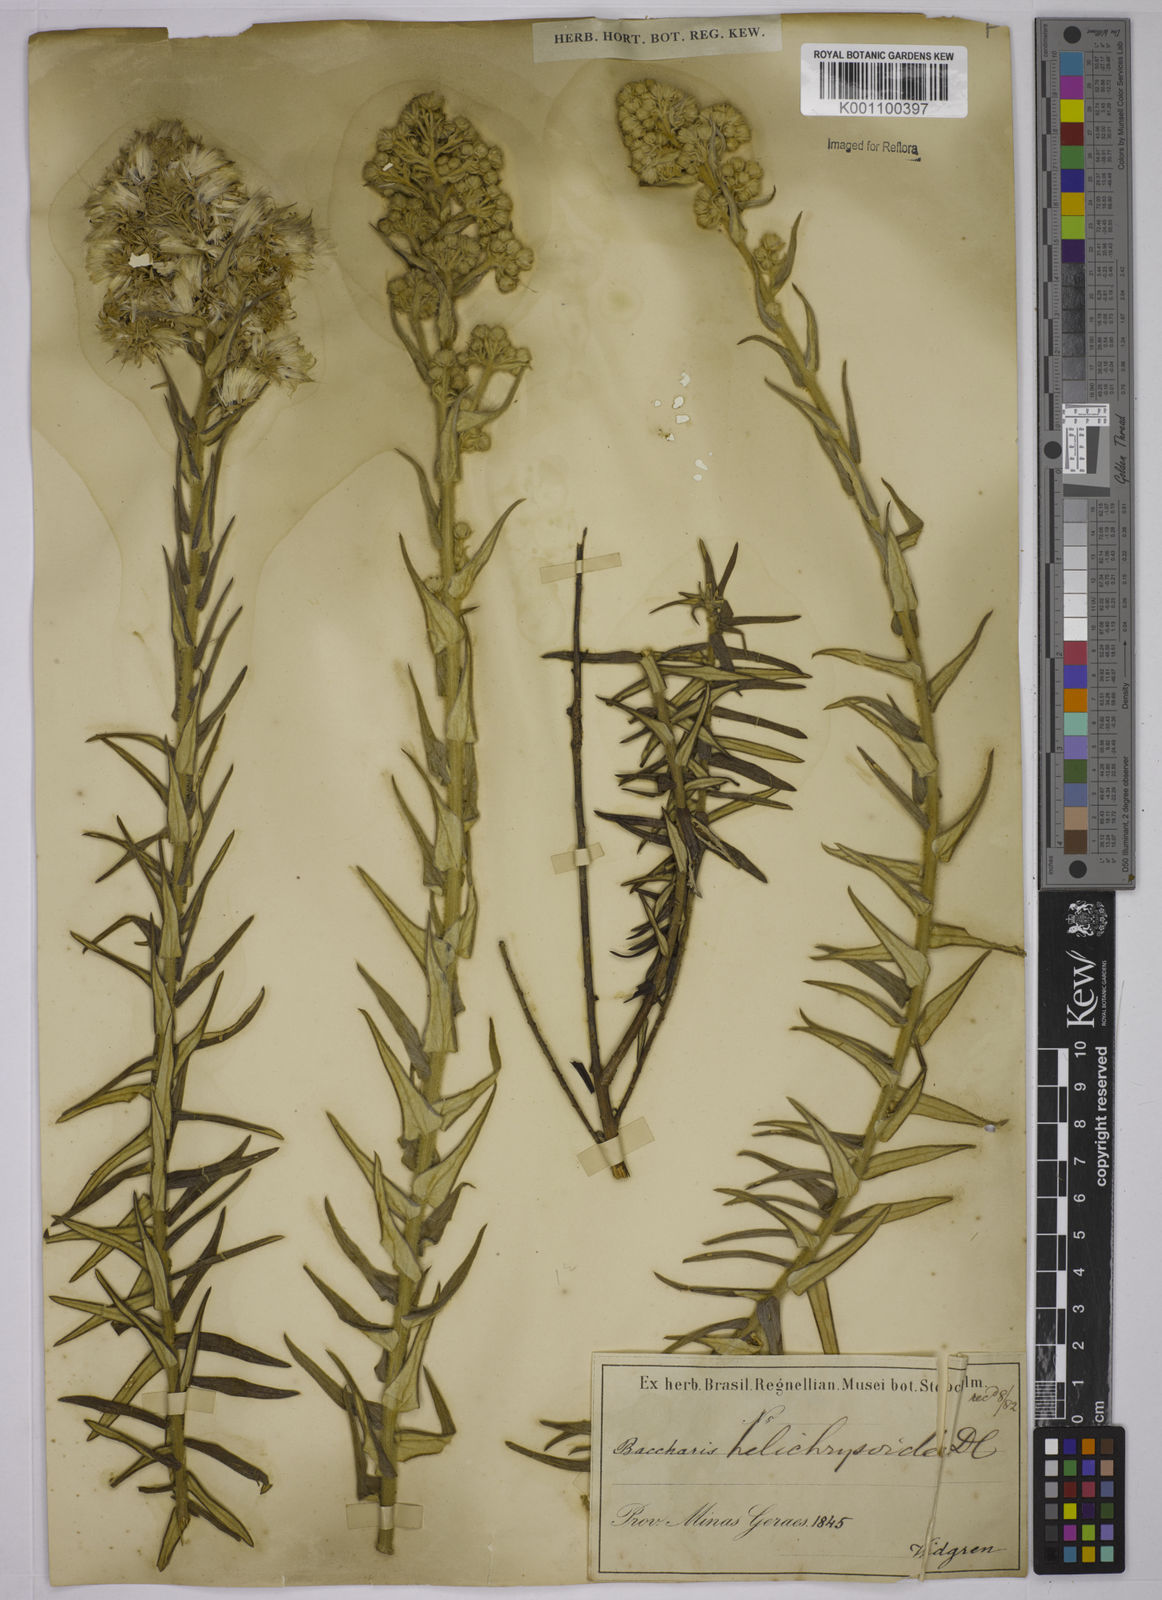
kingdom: Plantae
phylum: Tracheophyta
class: Magnoliopsida
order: Asterales
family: Asteraceae
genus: Baccharis
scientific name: Baccharis helichrysoides
